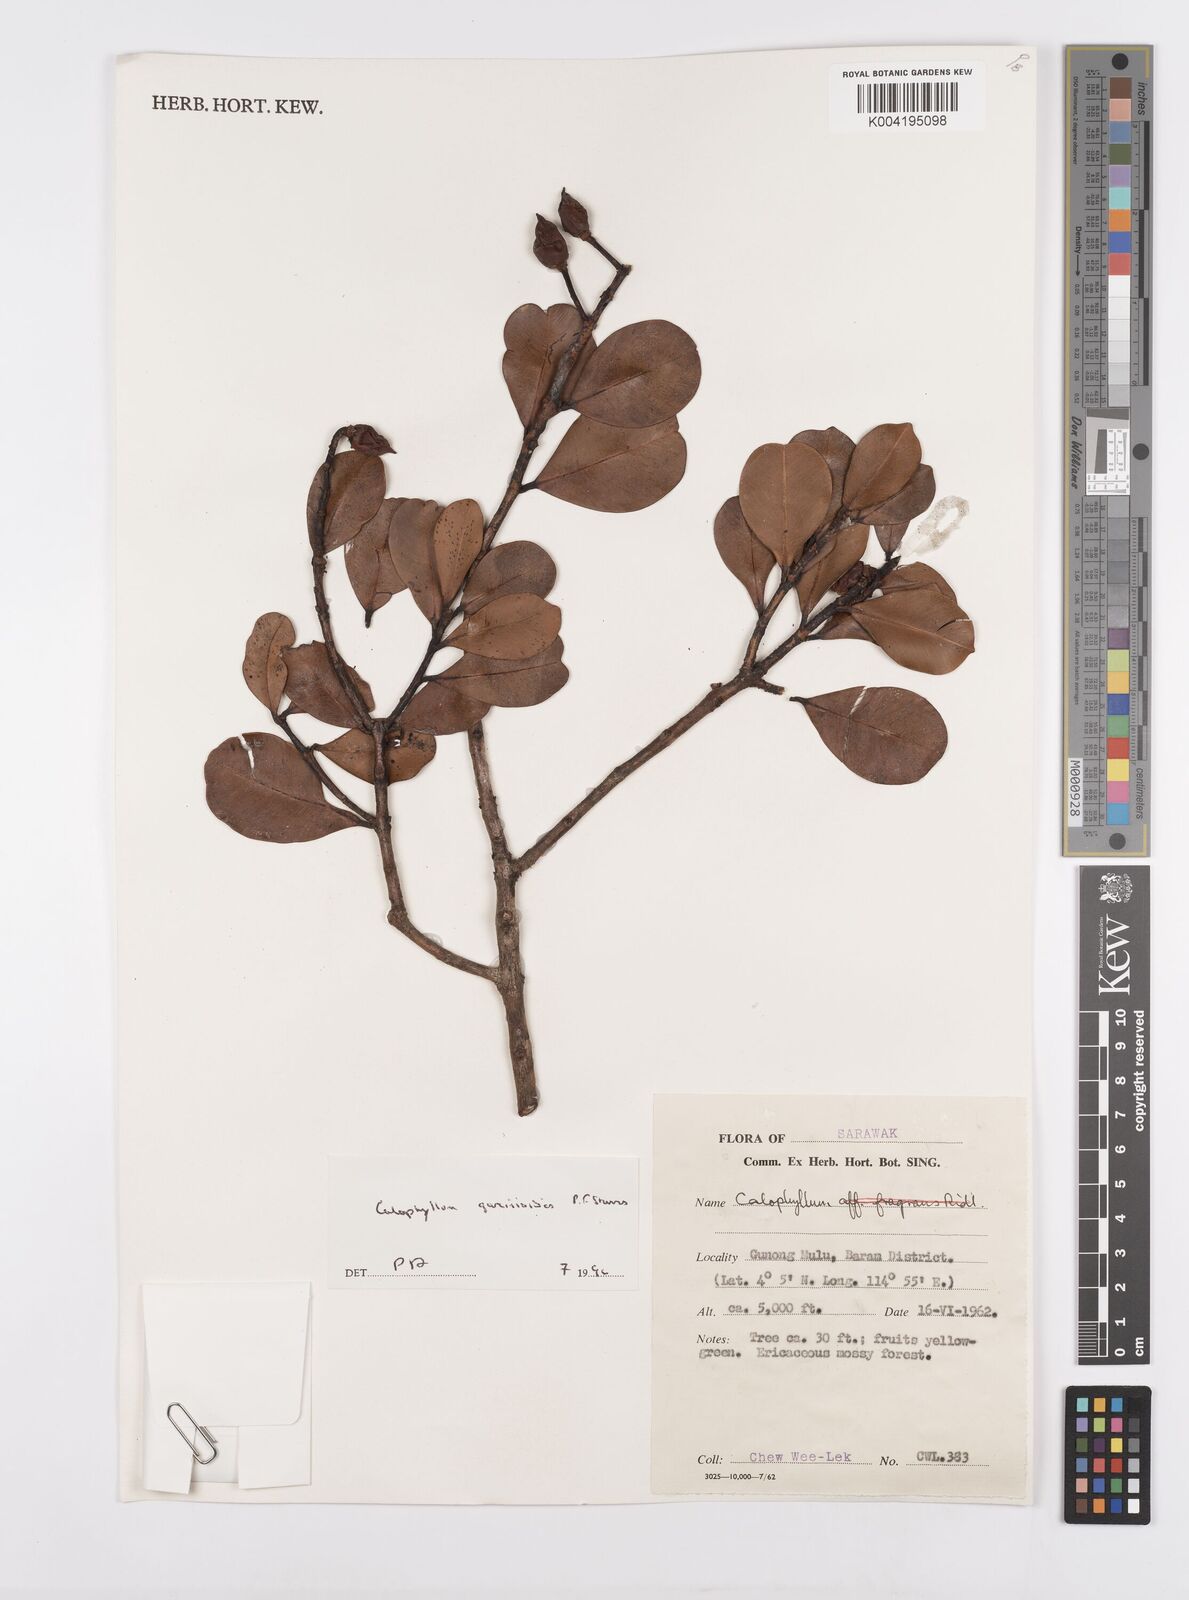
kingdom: Plantae
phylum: Tracheophyta
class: Magnoliopsida
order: Malpighiales
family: Calophyllaceae
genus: Calophyllum
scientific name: Calophyllum garcinioides
